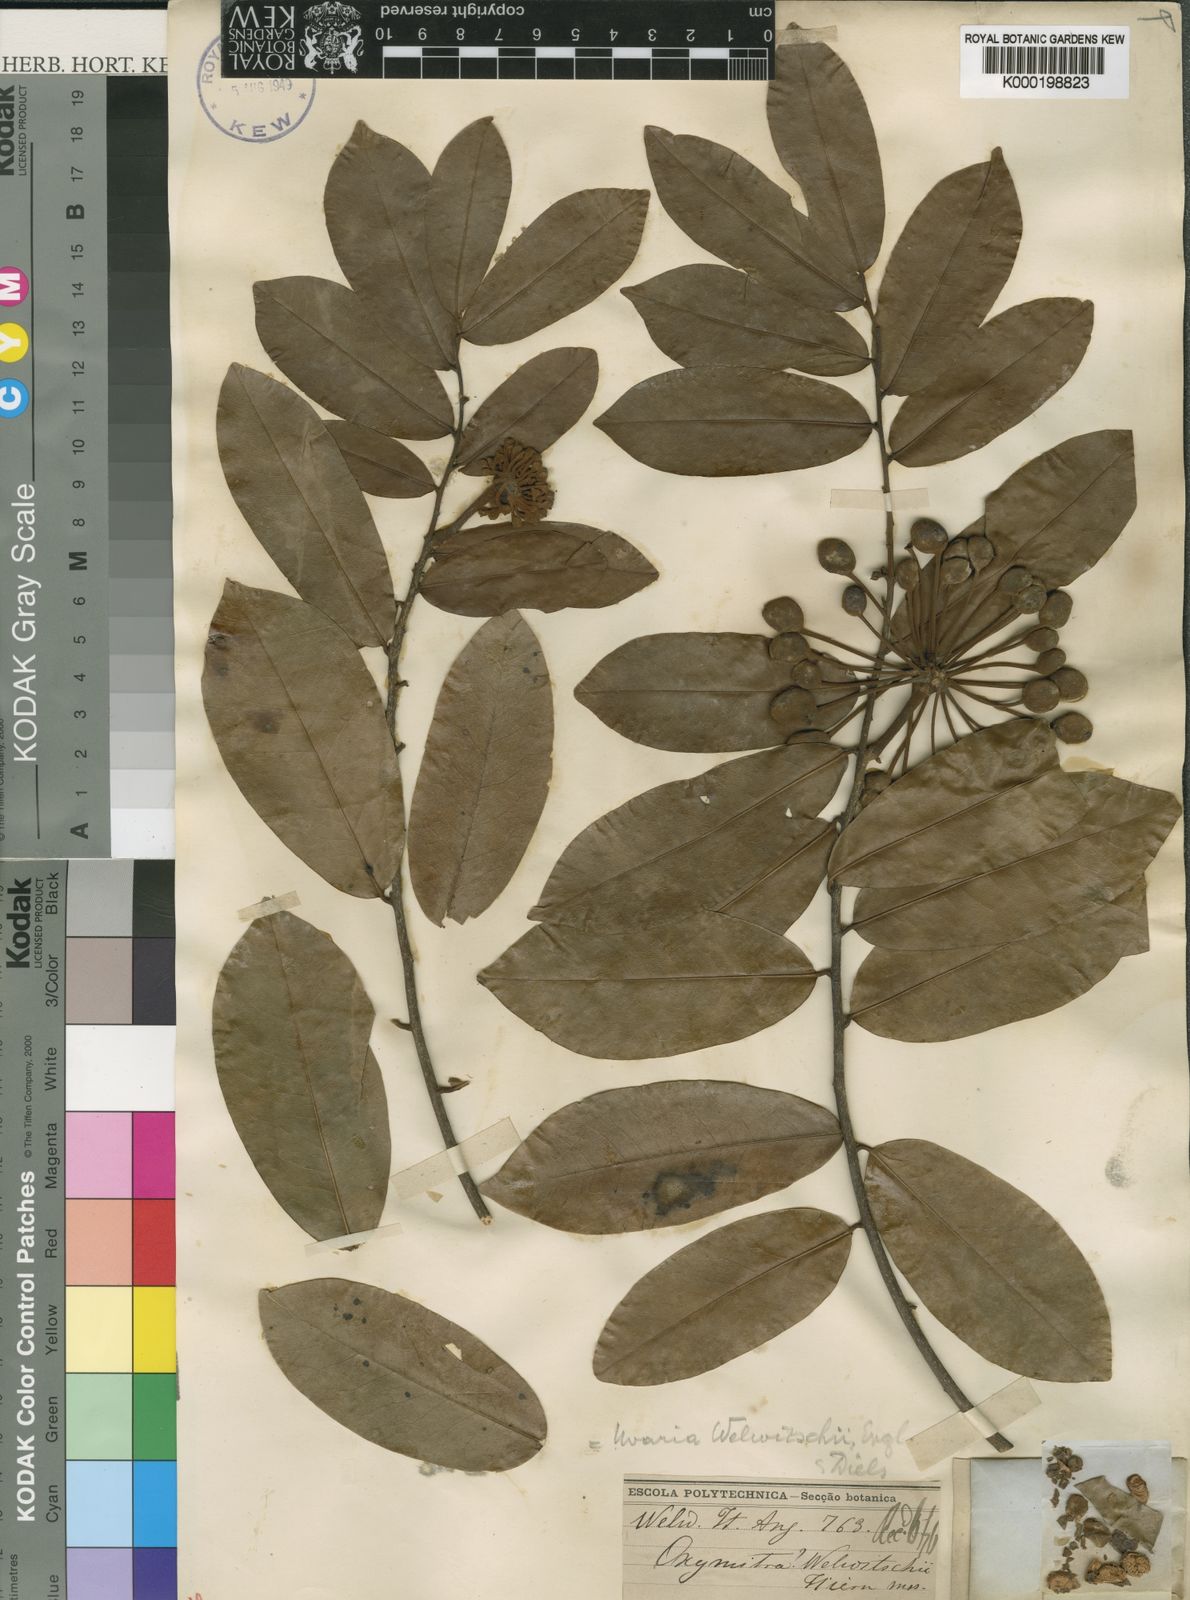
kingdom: Plantae
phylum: Tracheophyta
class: Magnoliopsida
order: Magnoliales
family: Annonaceae
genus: Uvaria
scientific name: Uvaria welwitschii
